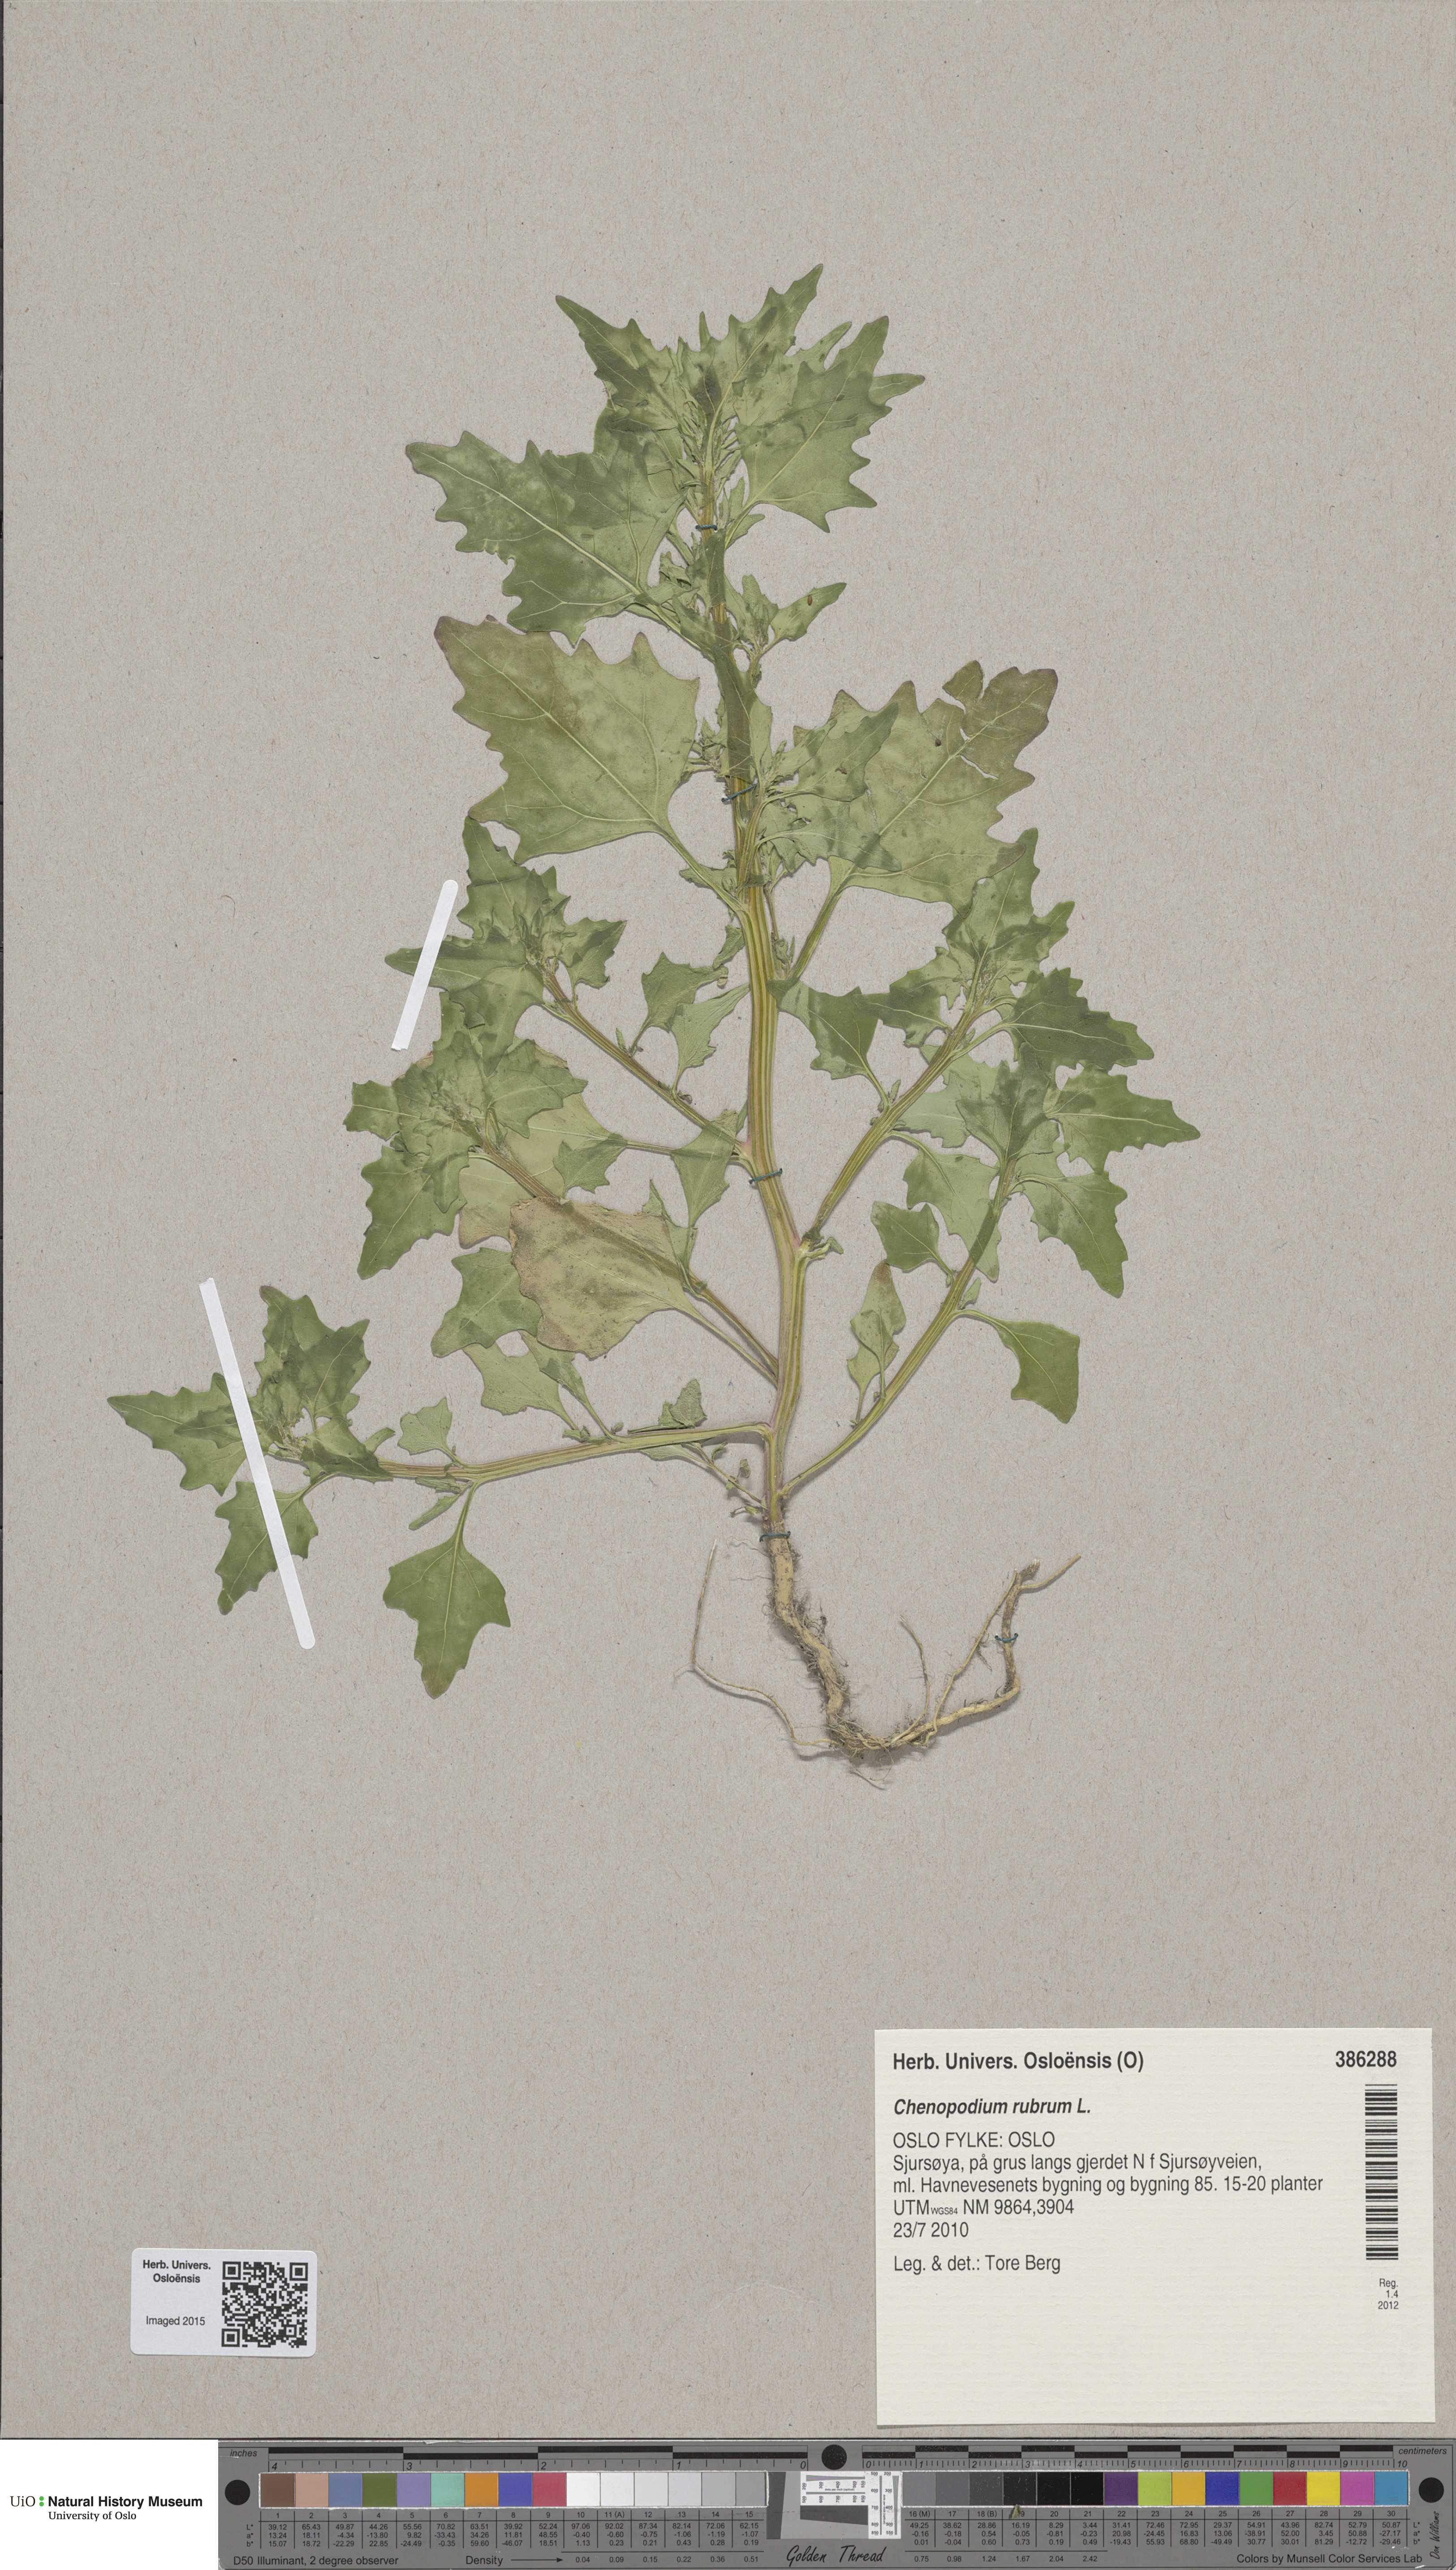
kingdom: Plantae
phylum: Tracheophyta
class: Magnoliopsida
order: Caryophyllales
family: Amaranthaceae
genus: Oxybasis
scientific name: Oxybasis rubra
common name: Red goosefoot
